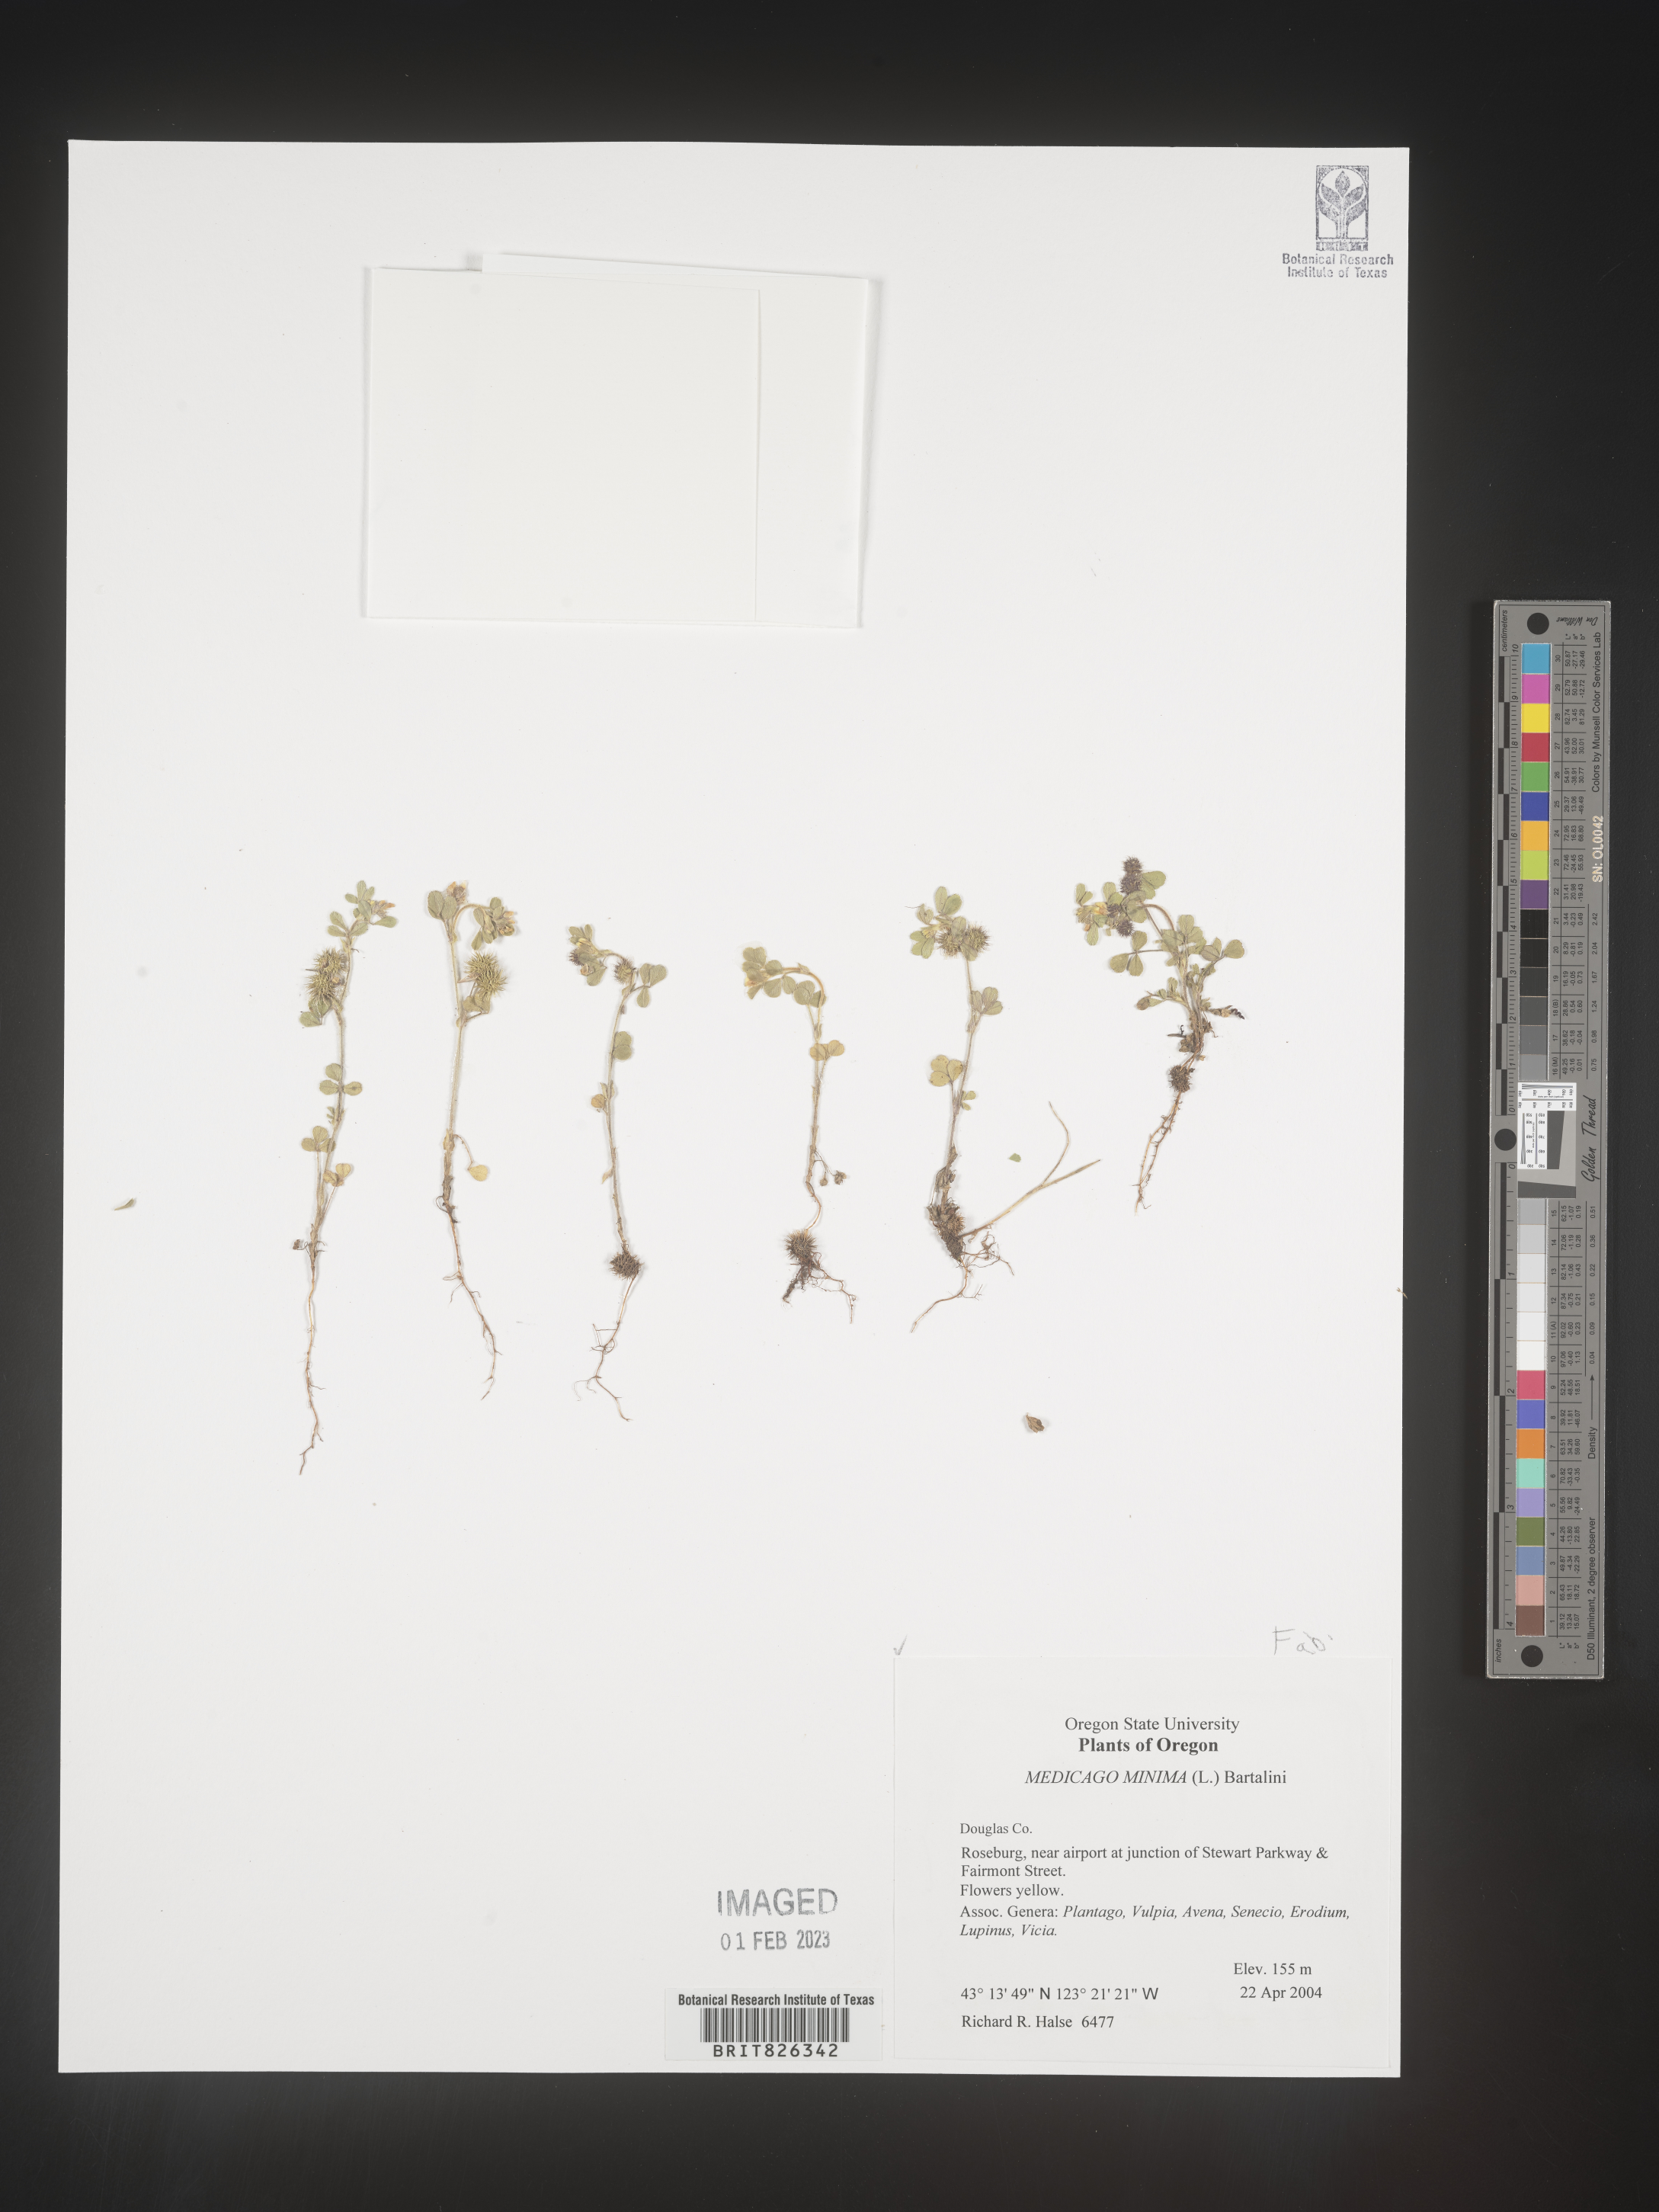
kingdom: Plantae
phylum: Tracheophyta
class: Magnoliopsida
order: Fabales
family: Fabaceae
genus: Medicago
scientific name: Medicago minima
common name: Little bur-clover
